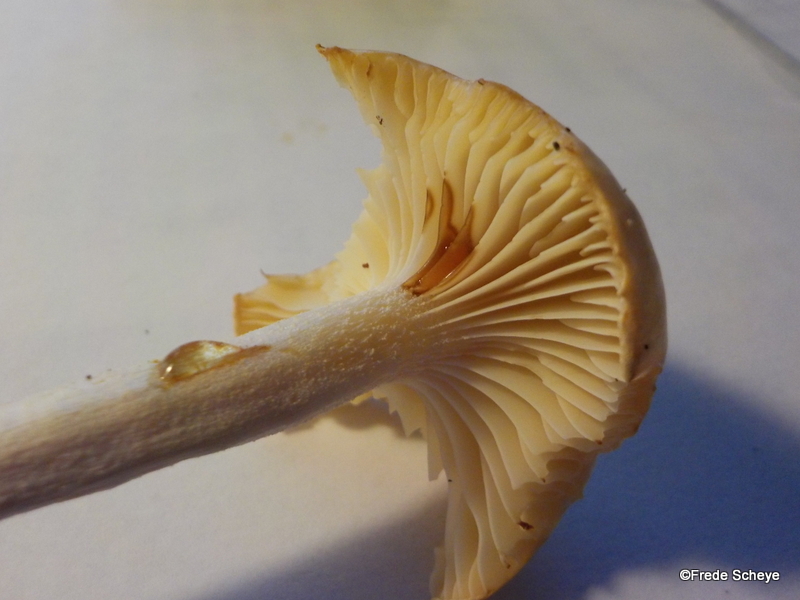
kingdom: Fungi
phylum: Basidiomycota
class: Agaricomycetes
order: Agaricales
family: Hygrophoraceae
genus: Hygrophorus
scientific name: Hygrophorus discoxanthus
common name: ildelugtende sneglehat
